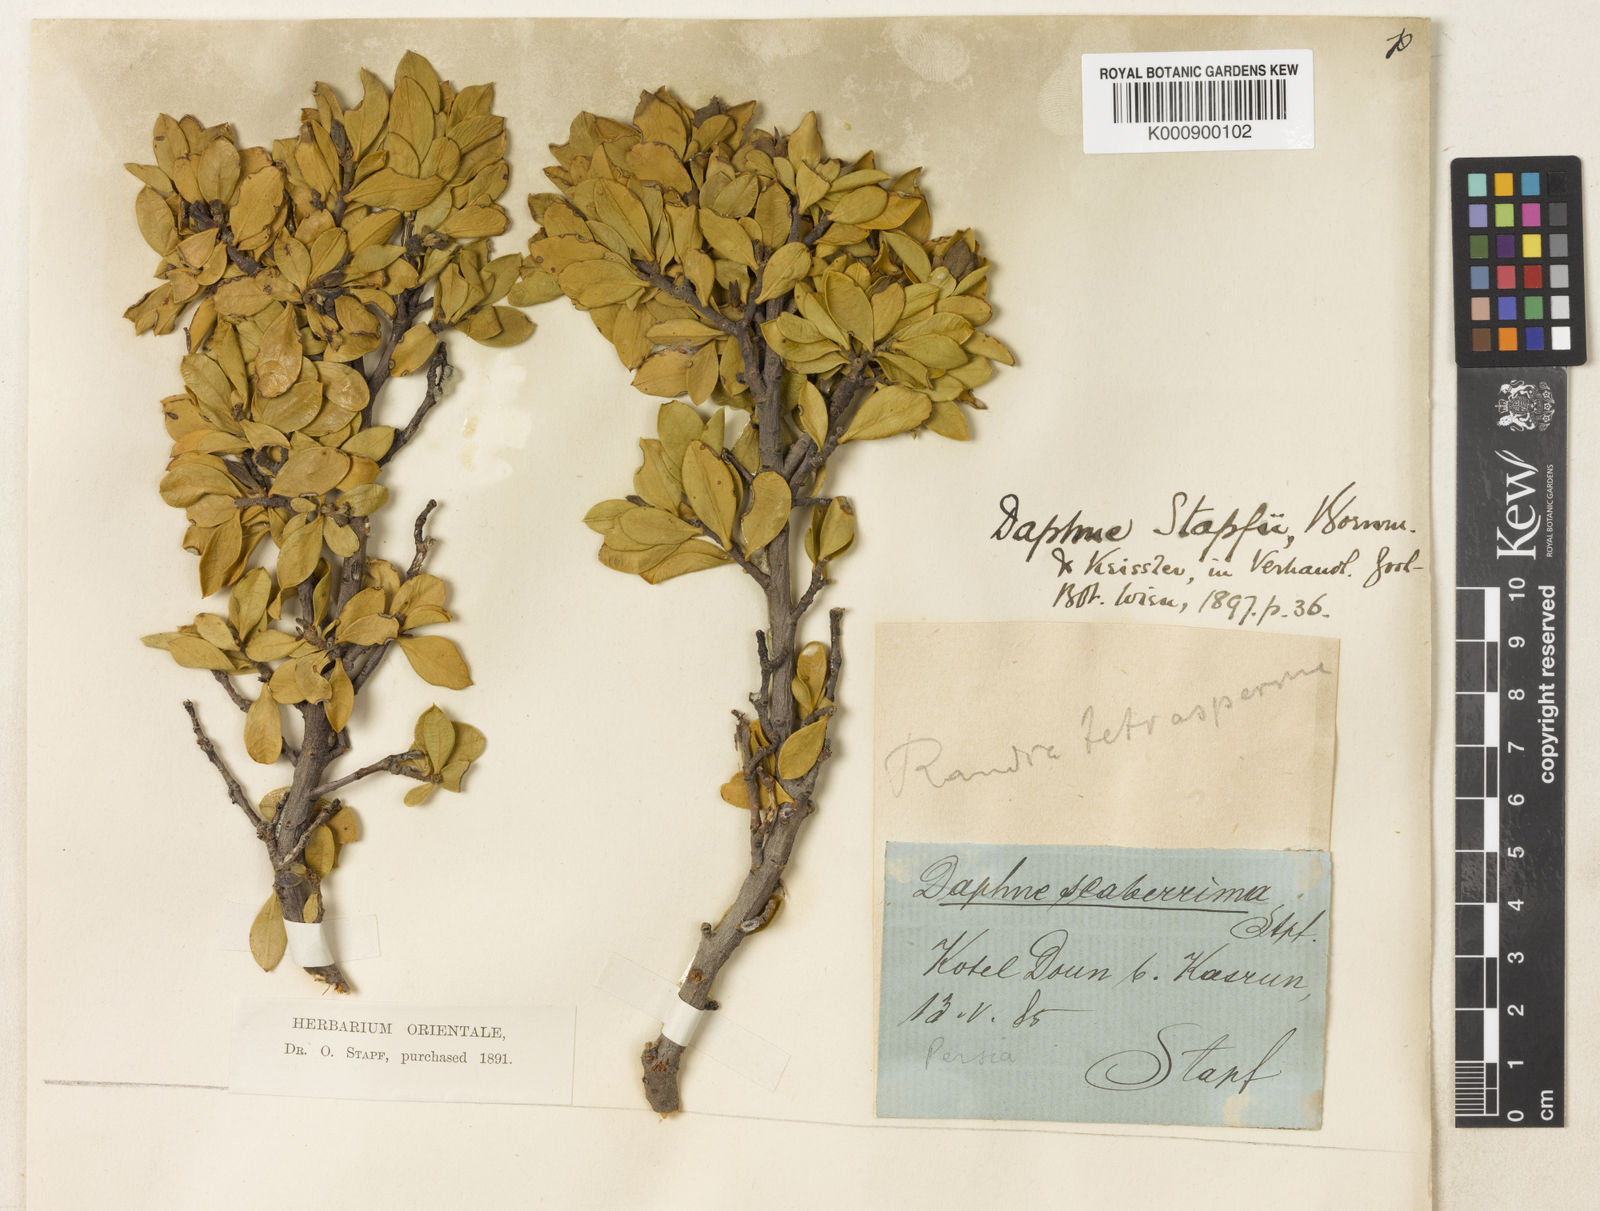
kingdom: Plantae
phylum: Tracheophyta
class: Magnoliopsida
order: Malvales
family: Thymelaeaceae
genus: Daphne
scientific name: Daphne stapfii
